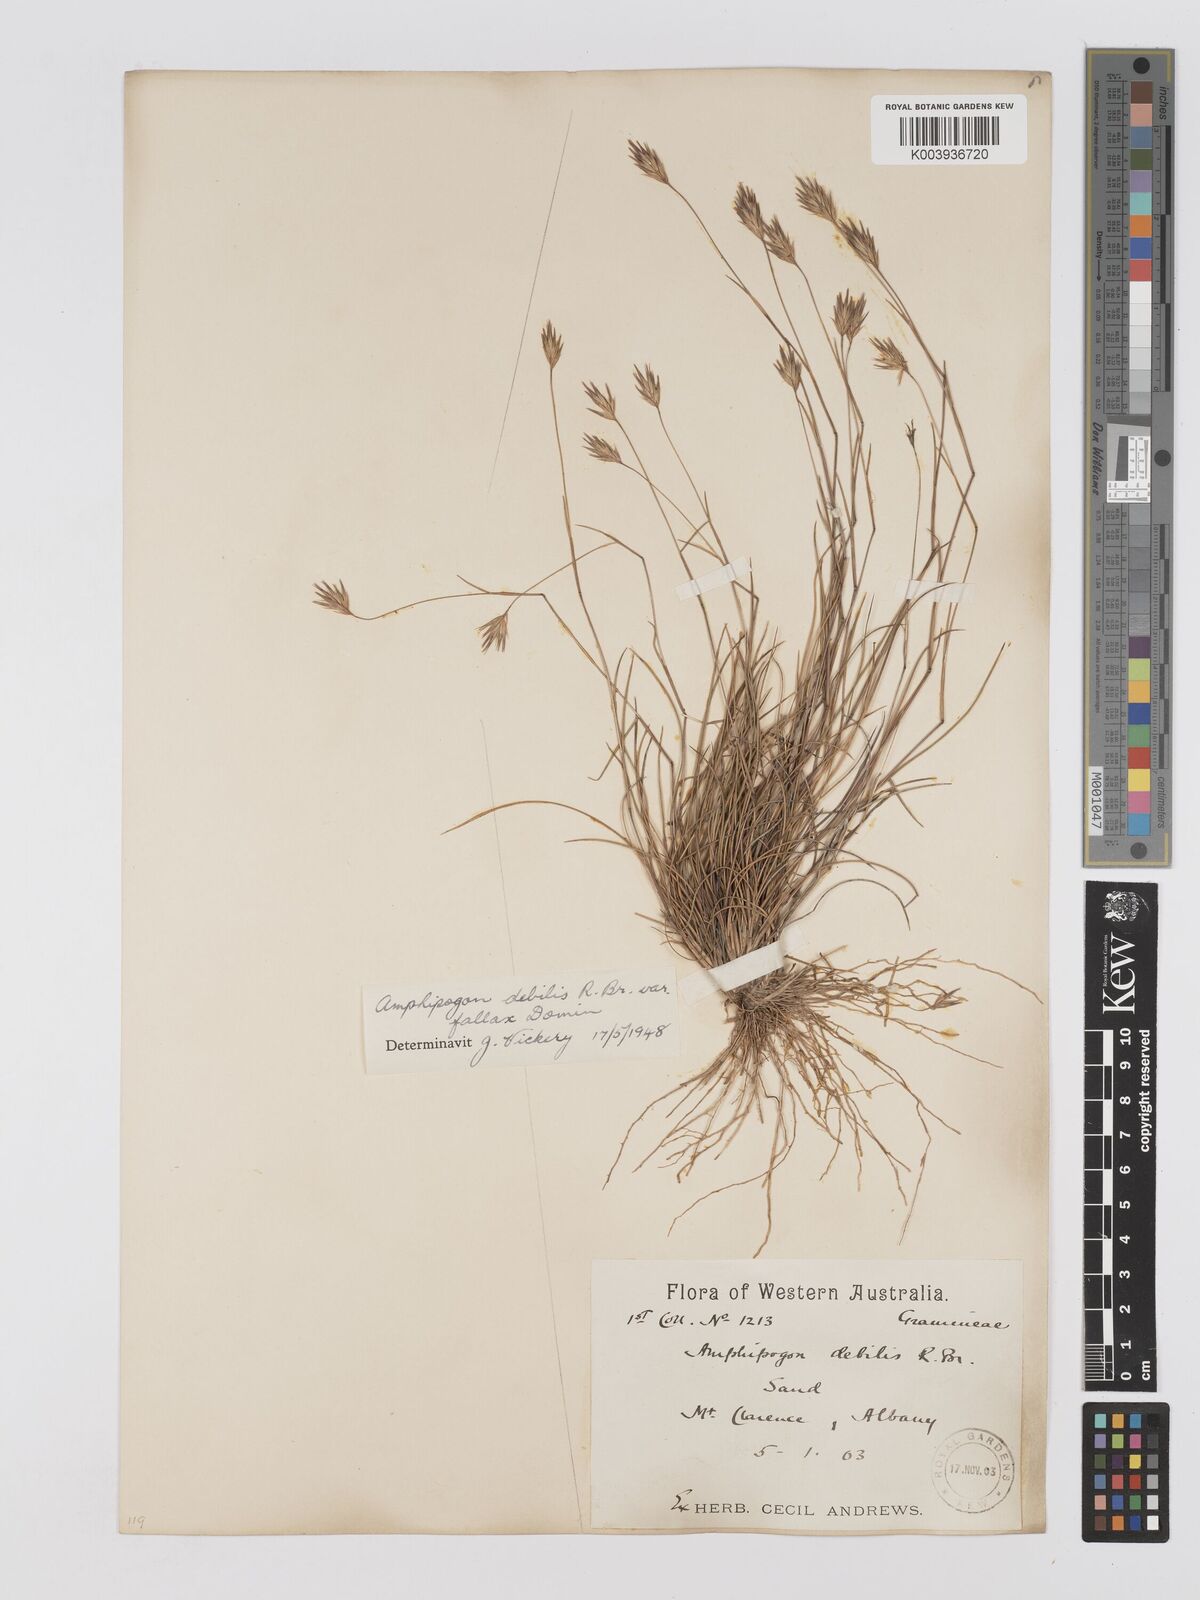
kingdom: Plantae
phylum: Tracheophyta
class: Liliopsida
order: Poales
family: Poaceae
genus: Amphipogon
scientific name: Amphipogon debilis
